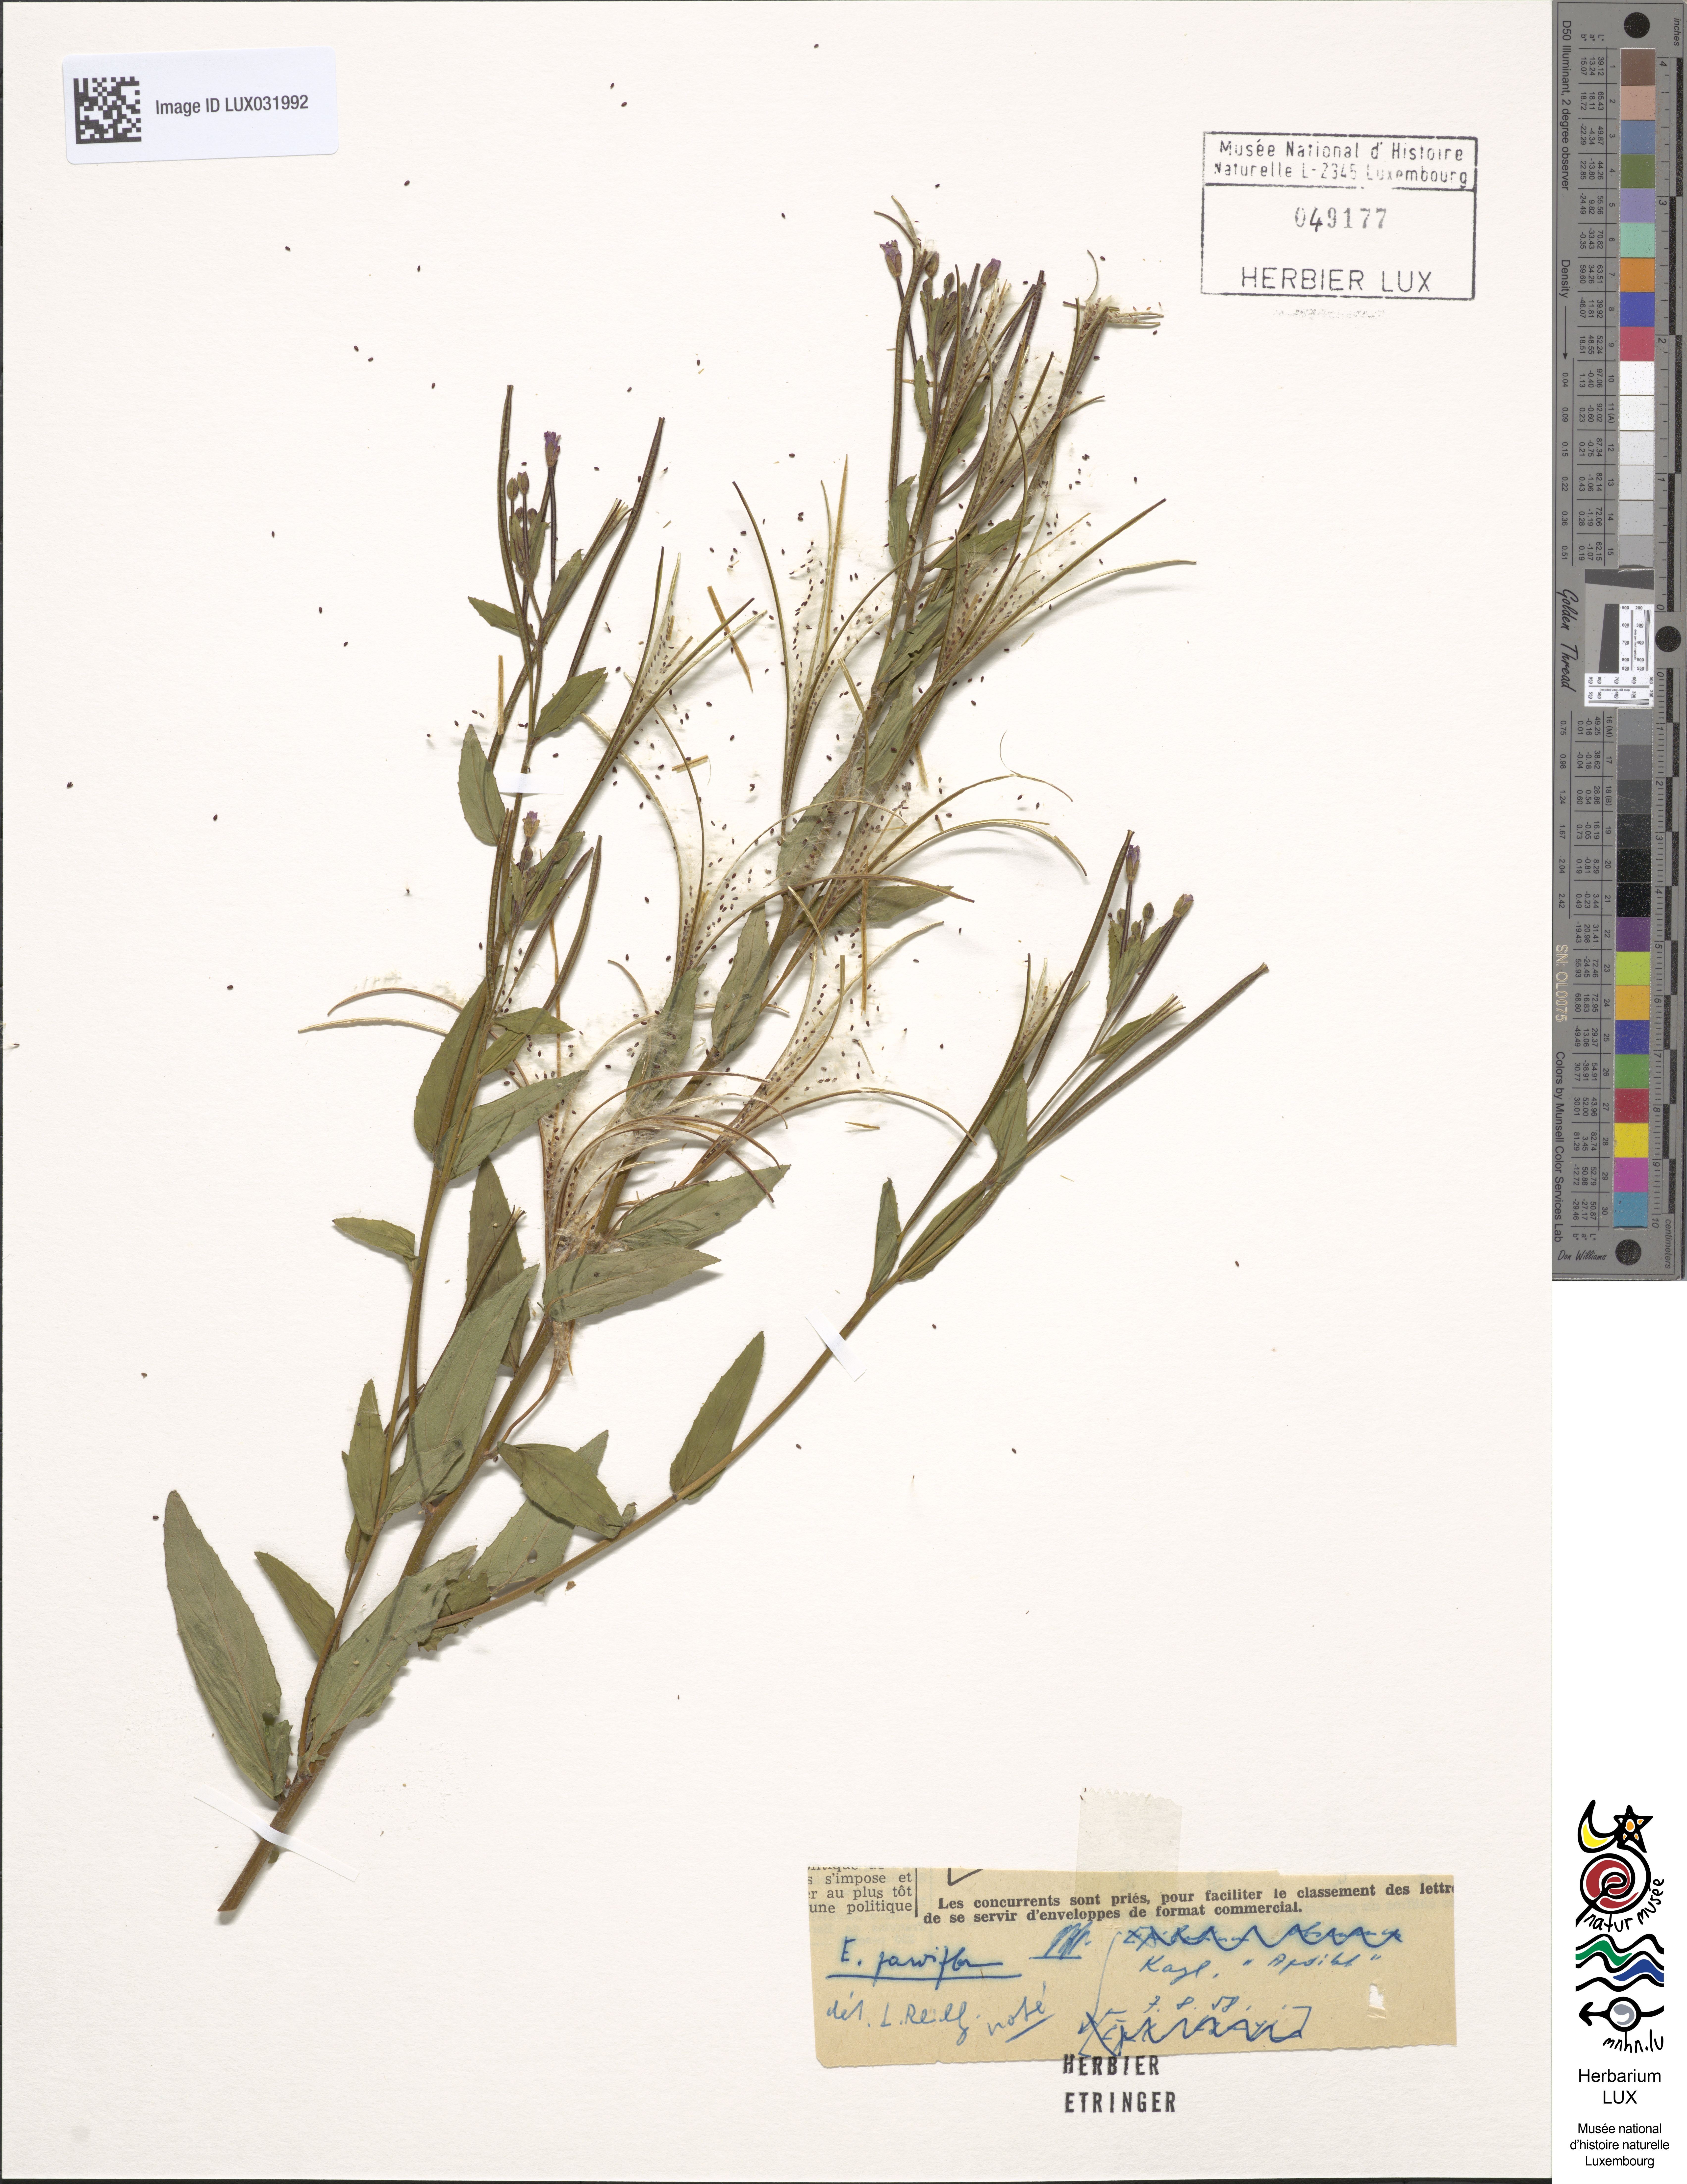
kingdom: Plantae
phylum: Tracheophyta
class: Magnoliopsida
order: Myrtales
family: Onagraceae
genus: Epilobium
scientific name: Epilobium parviflorum
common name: Hoary willowherb
